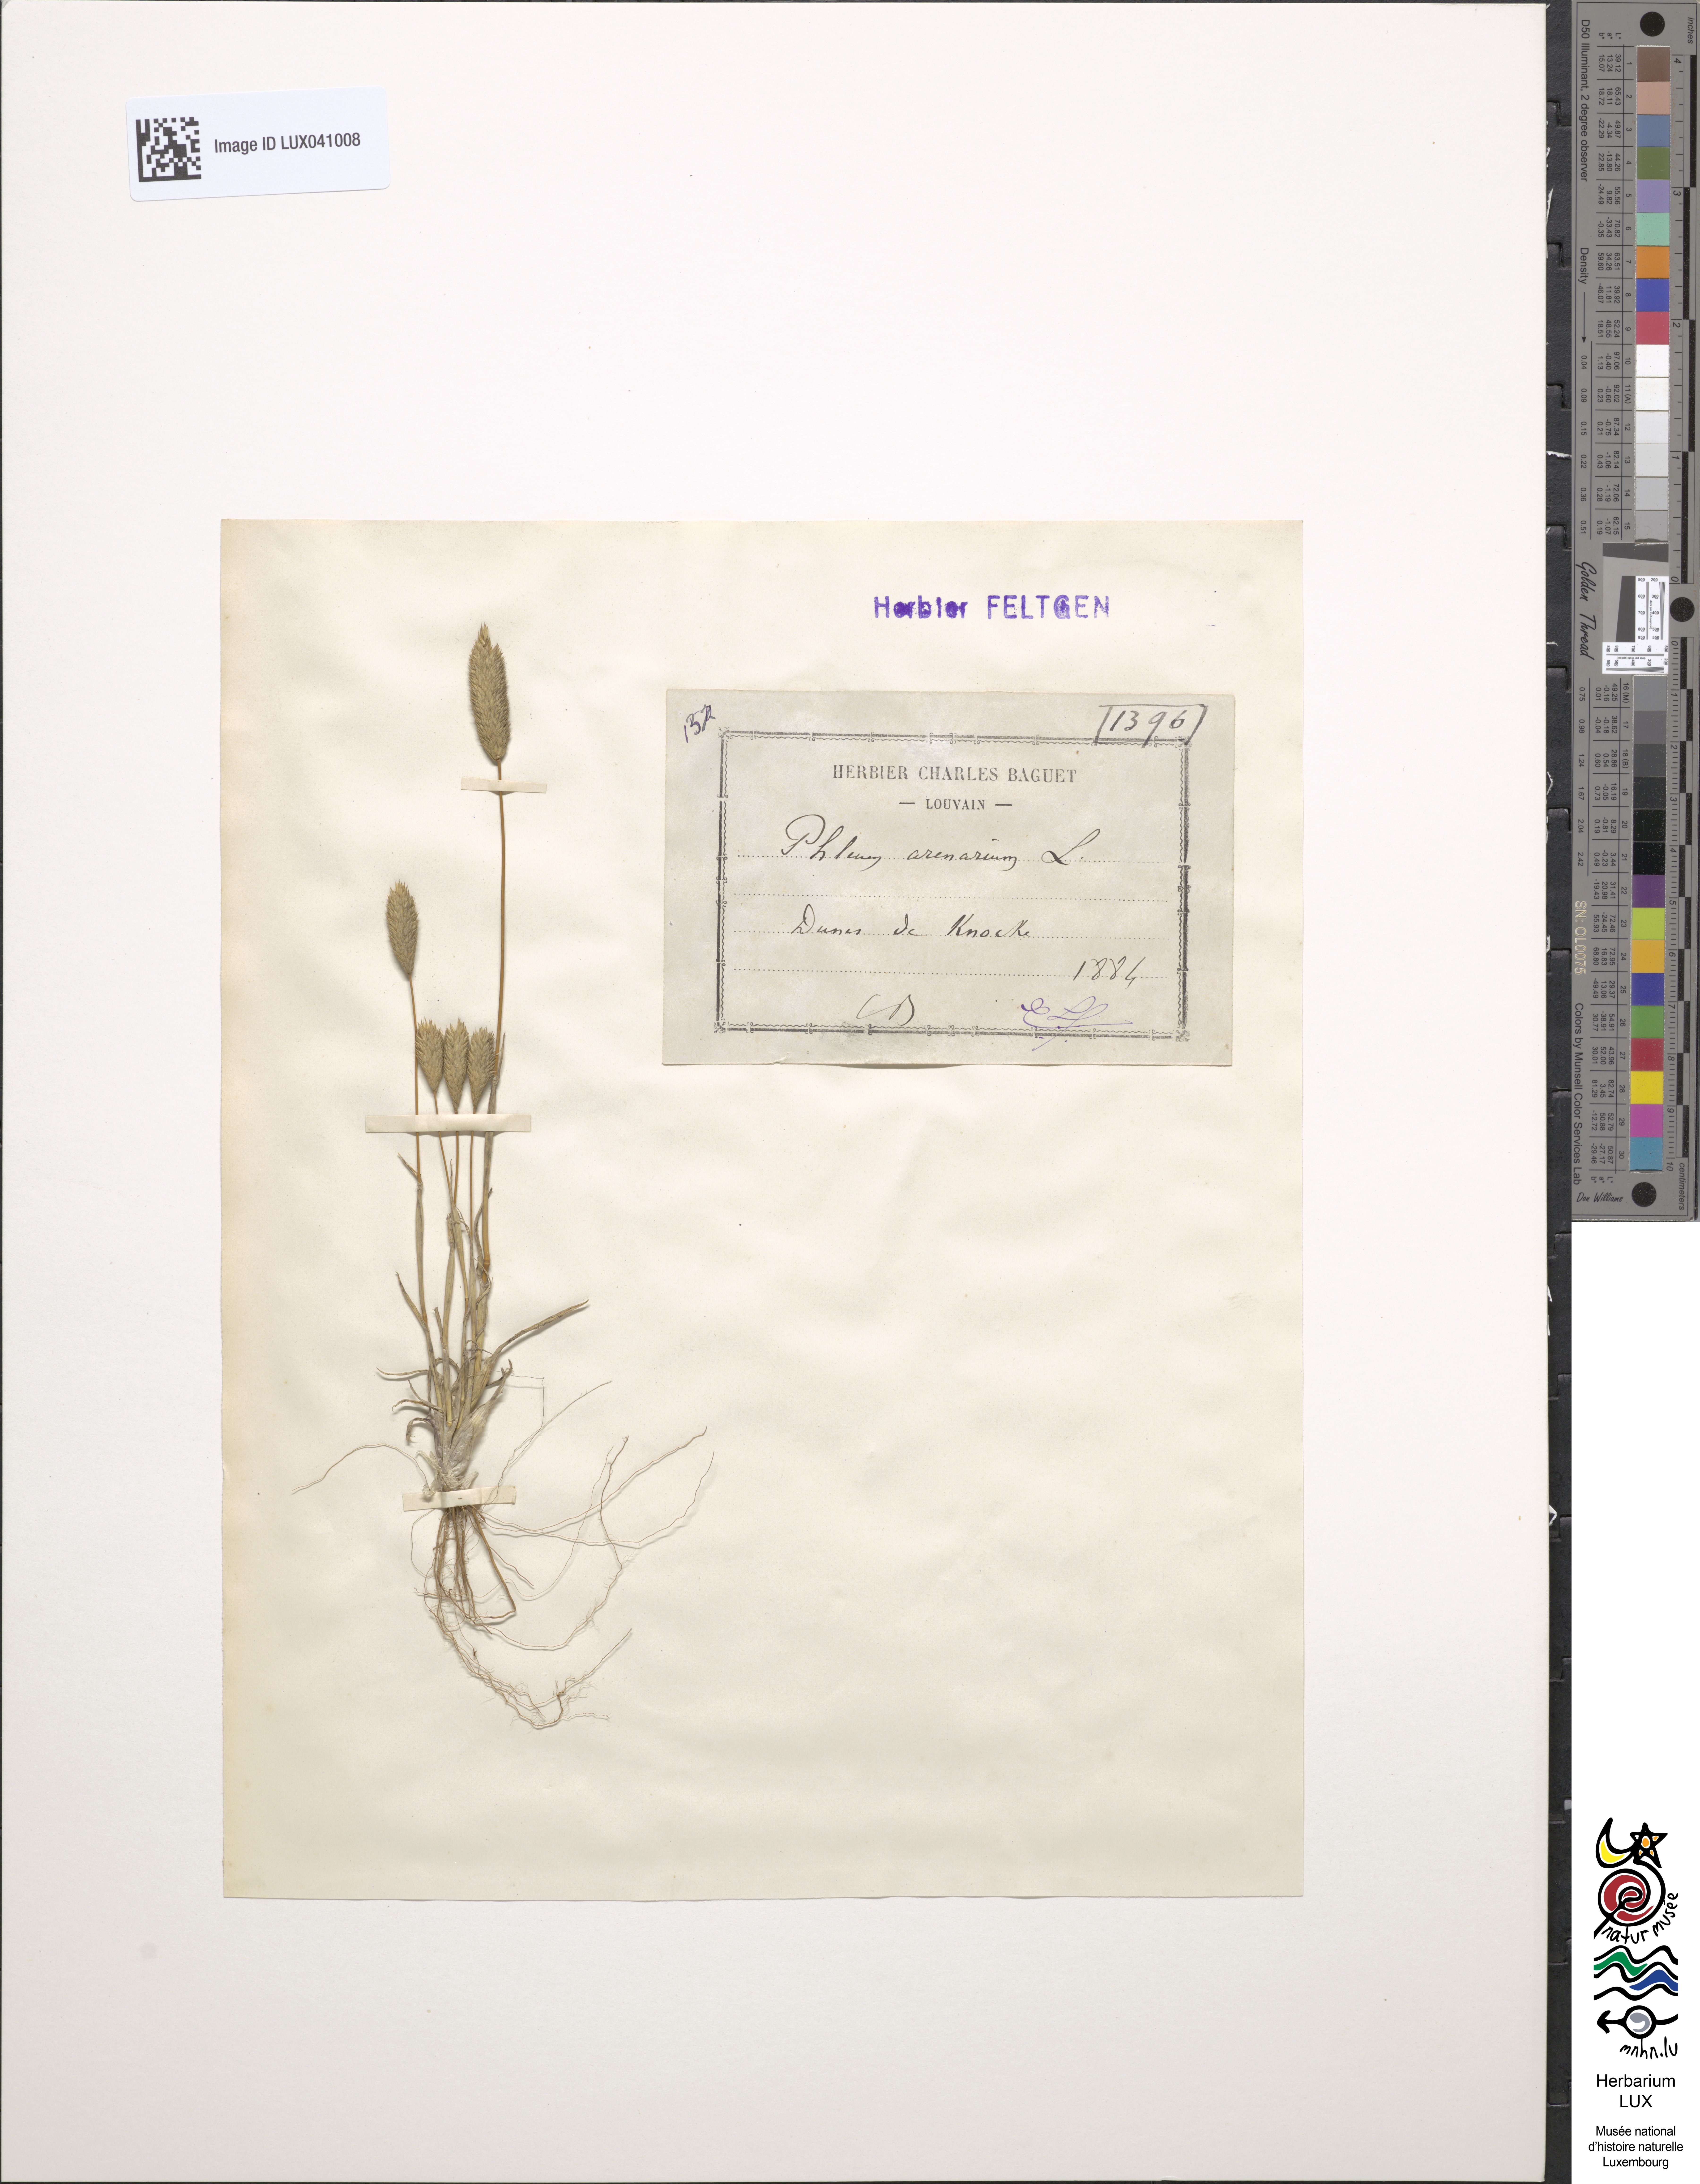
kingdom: Plantae
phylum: Tracheophyta
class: Liliopsida
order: Poales
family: Poaceae
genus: Phleum
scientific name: Phleum arenarium
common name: Sand cat's-tail
